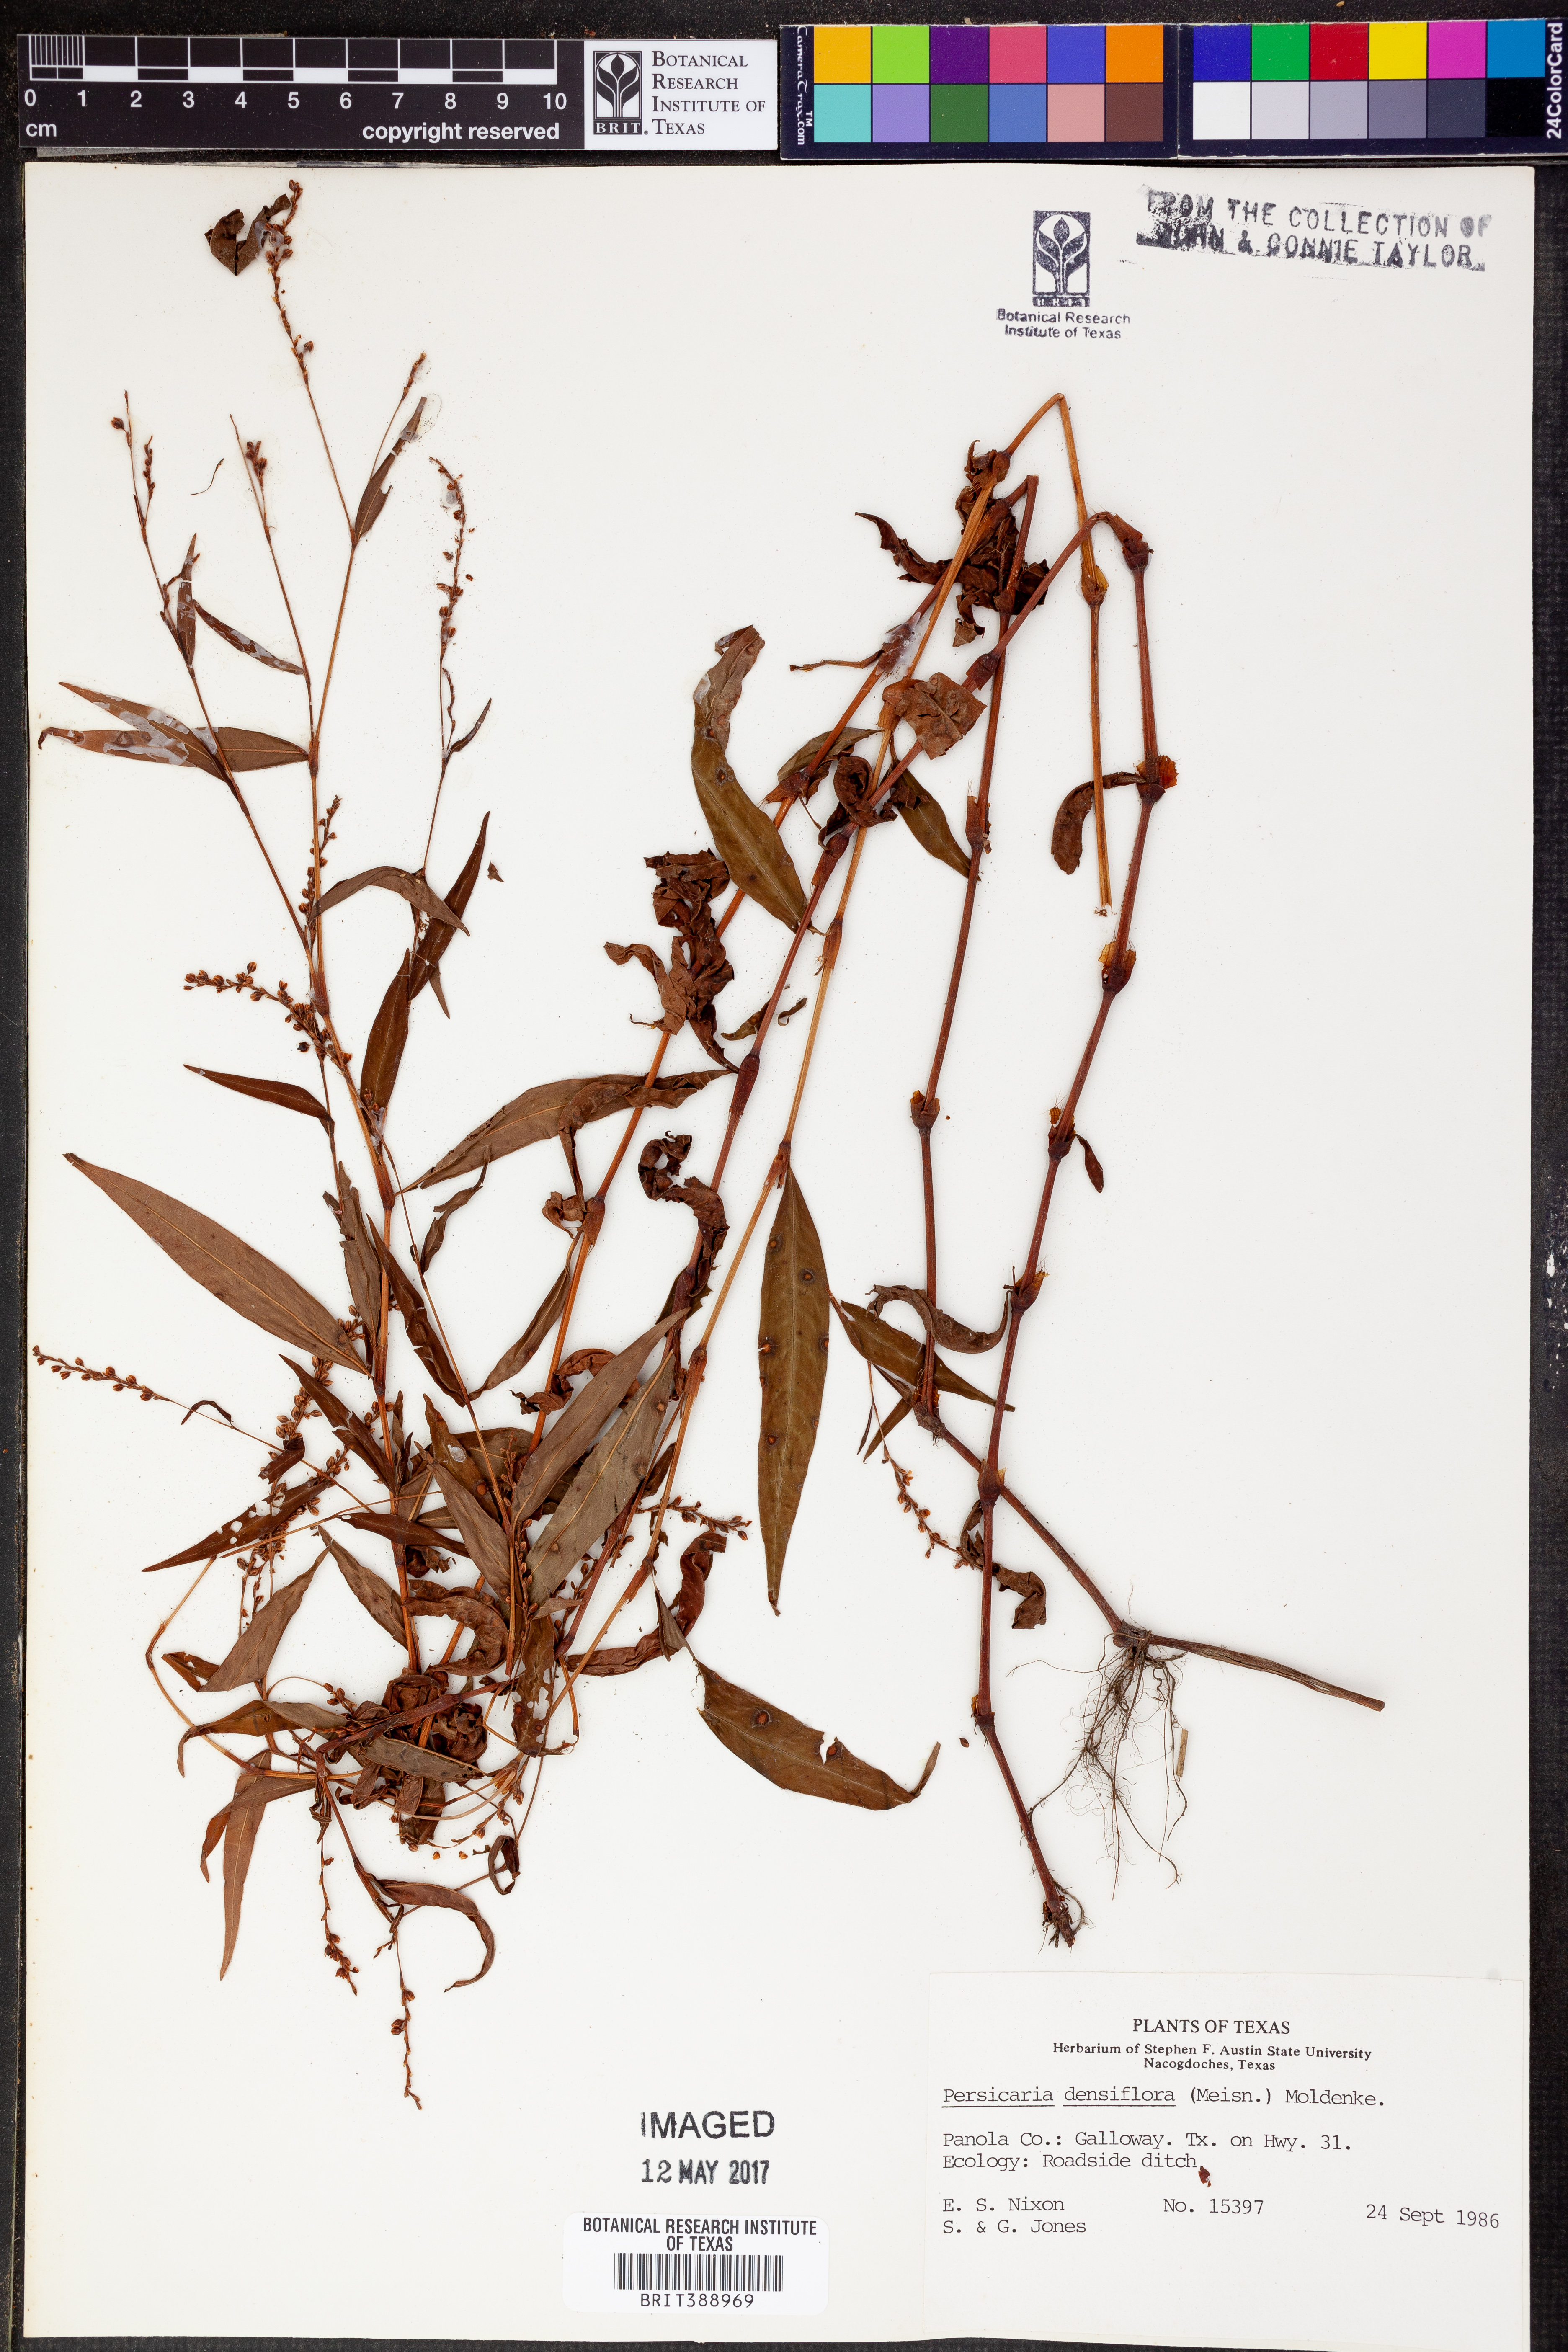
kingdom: Plantae
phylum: Tracheophyta
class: Magnoliopsida
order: Caryophyllales
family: Polygonaceae
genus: Persicaria
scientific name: Persicaria glabra
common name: Denseflower knotweed
